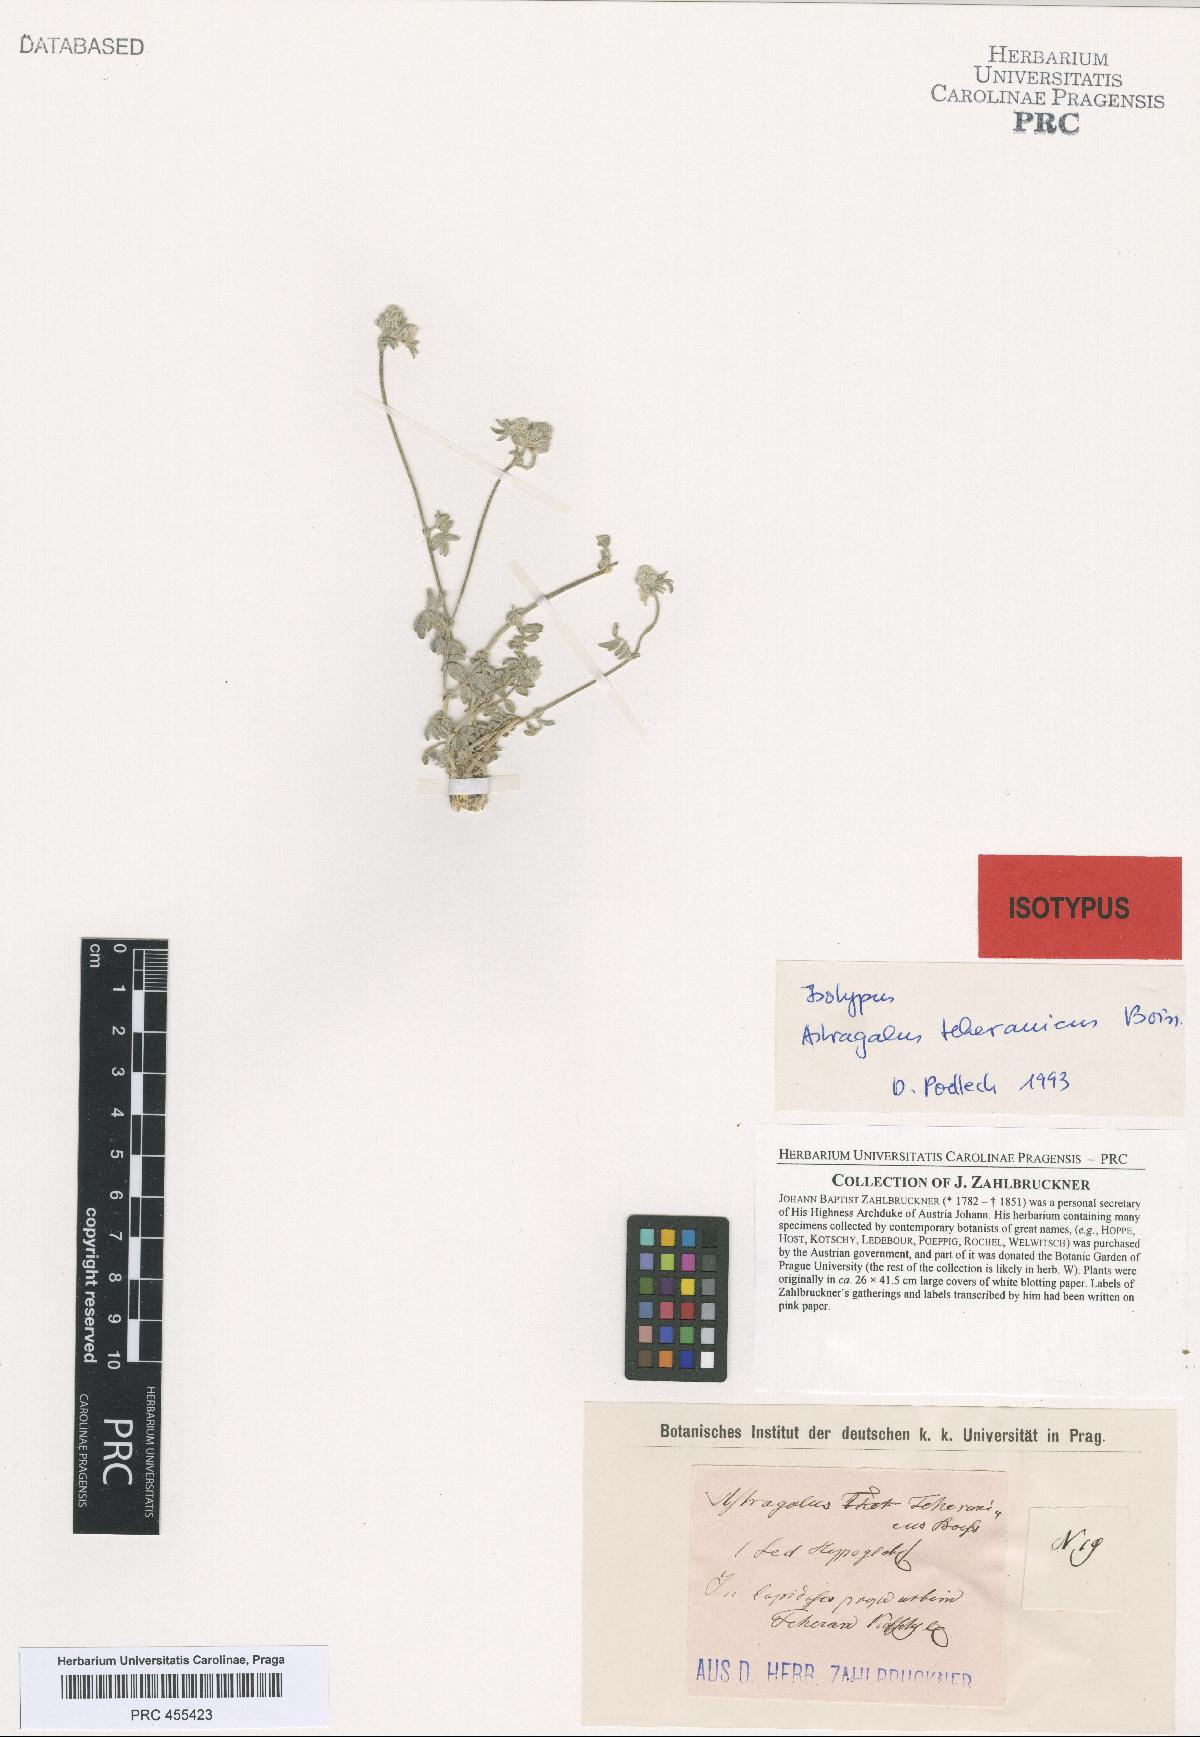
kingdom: Plantae
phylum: Tracheophyta
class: Magnoliopsida
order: Fabales
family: Fabaceae
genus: Astragalus
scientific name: Astragalus teheranicus
